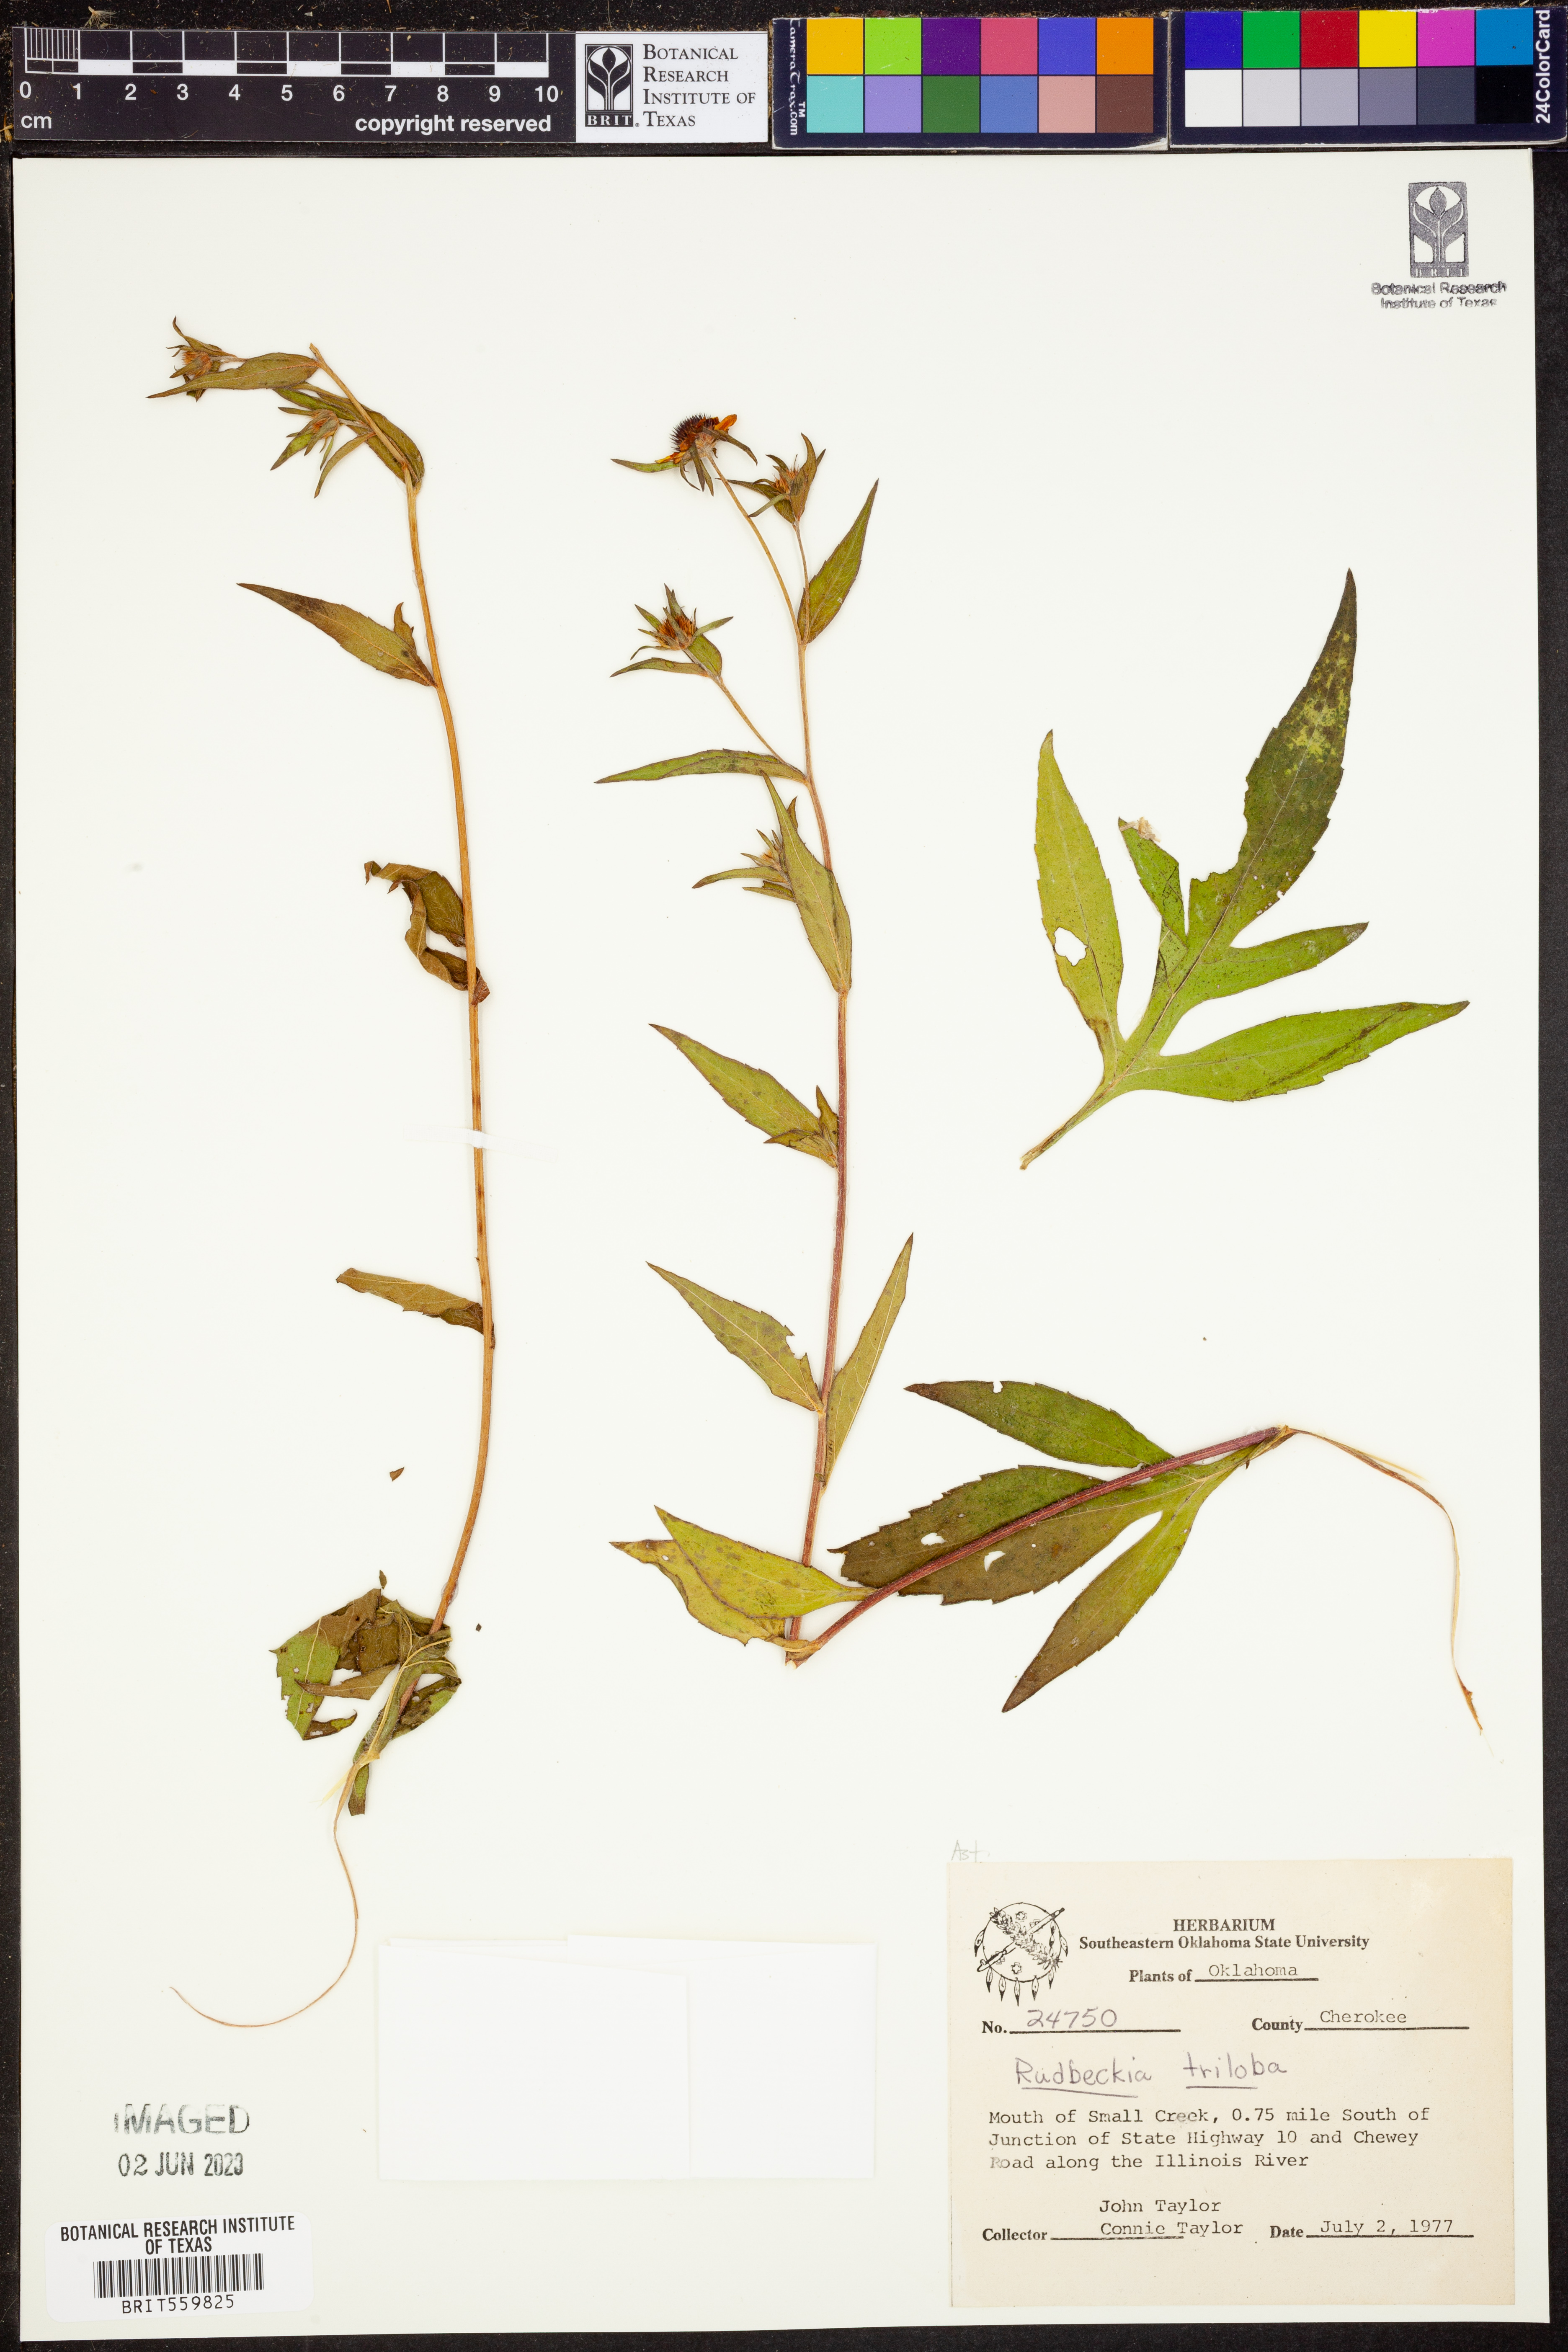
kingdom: Plantae
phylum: Tracheophyta
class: Magnoliopsida
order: Asterales
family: Asteraceae
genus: Rudbeckia
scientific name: Rudbeckia triloba
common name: Thin-leaved coneflower
